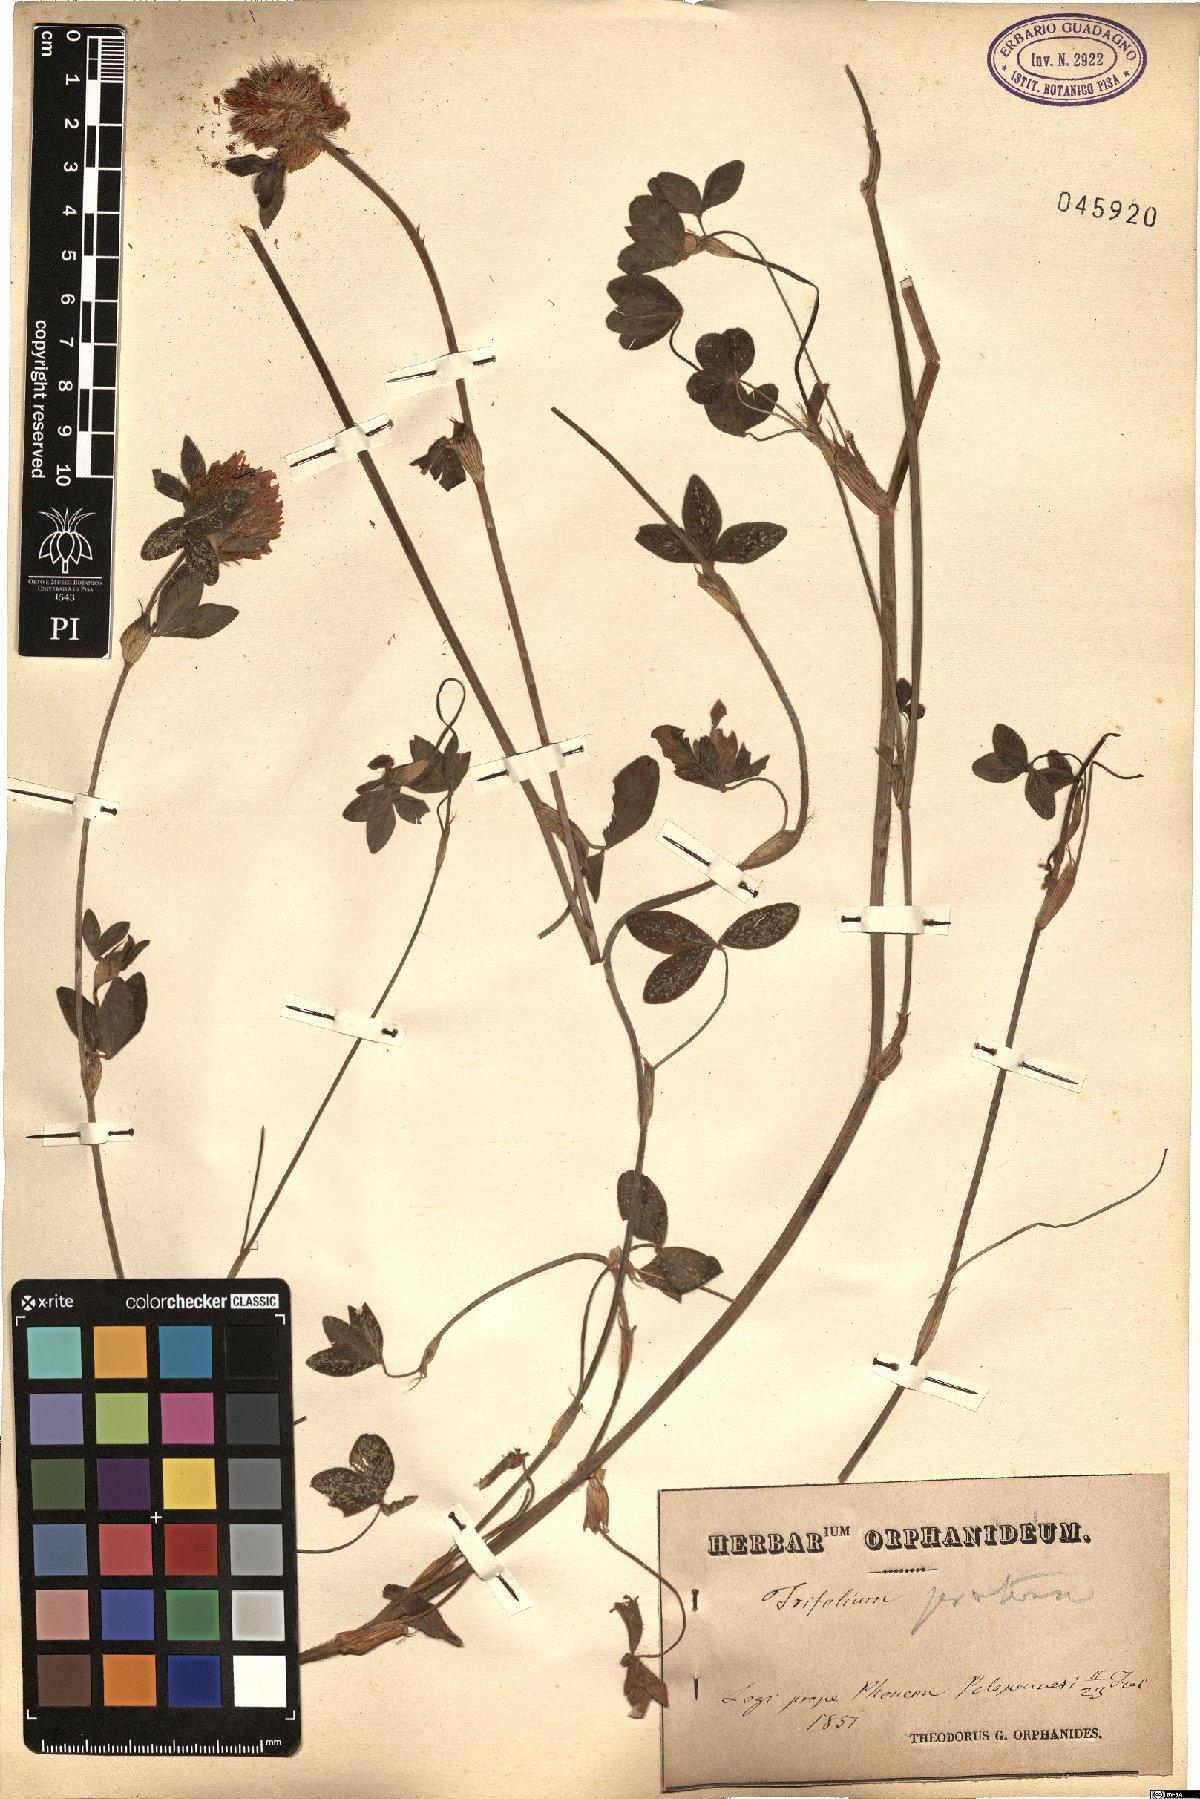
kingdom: Plantae
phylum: Tracheophyta
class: Magnoliopsida
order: Fabales
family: Fabaceae
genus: Trifolium
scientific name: Trifolium pratense
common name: Red clover
